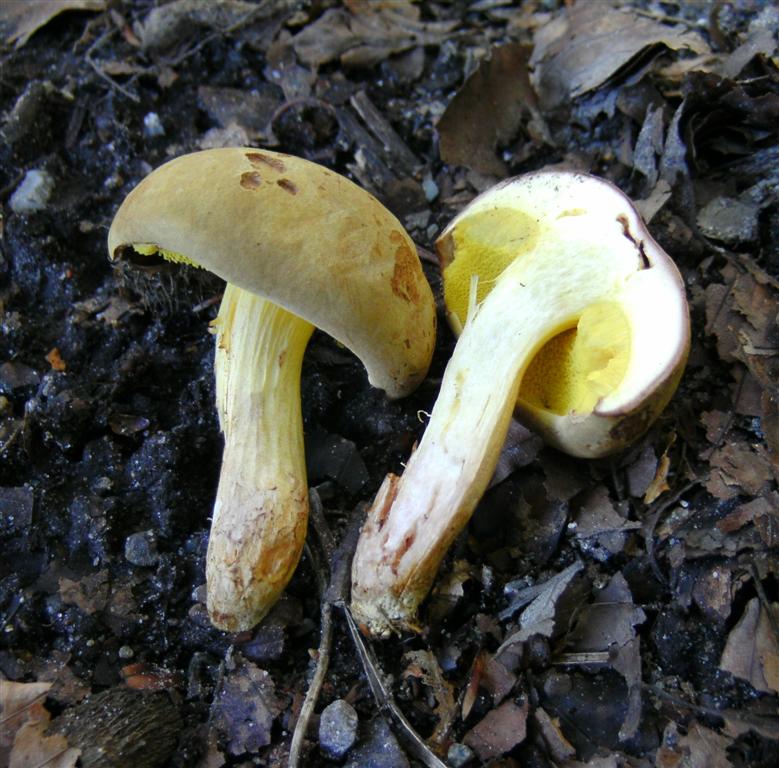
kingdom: Fungi
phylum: Basidiomycota
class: Agaricomycetes
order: Boletales
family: Boletaceae
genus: Xerocomus
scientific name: Xerocomus ferrugineus
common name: vaskeskinds-rørhat
